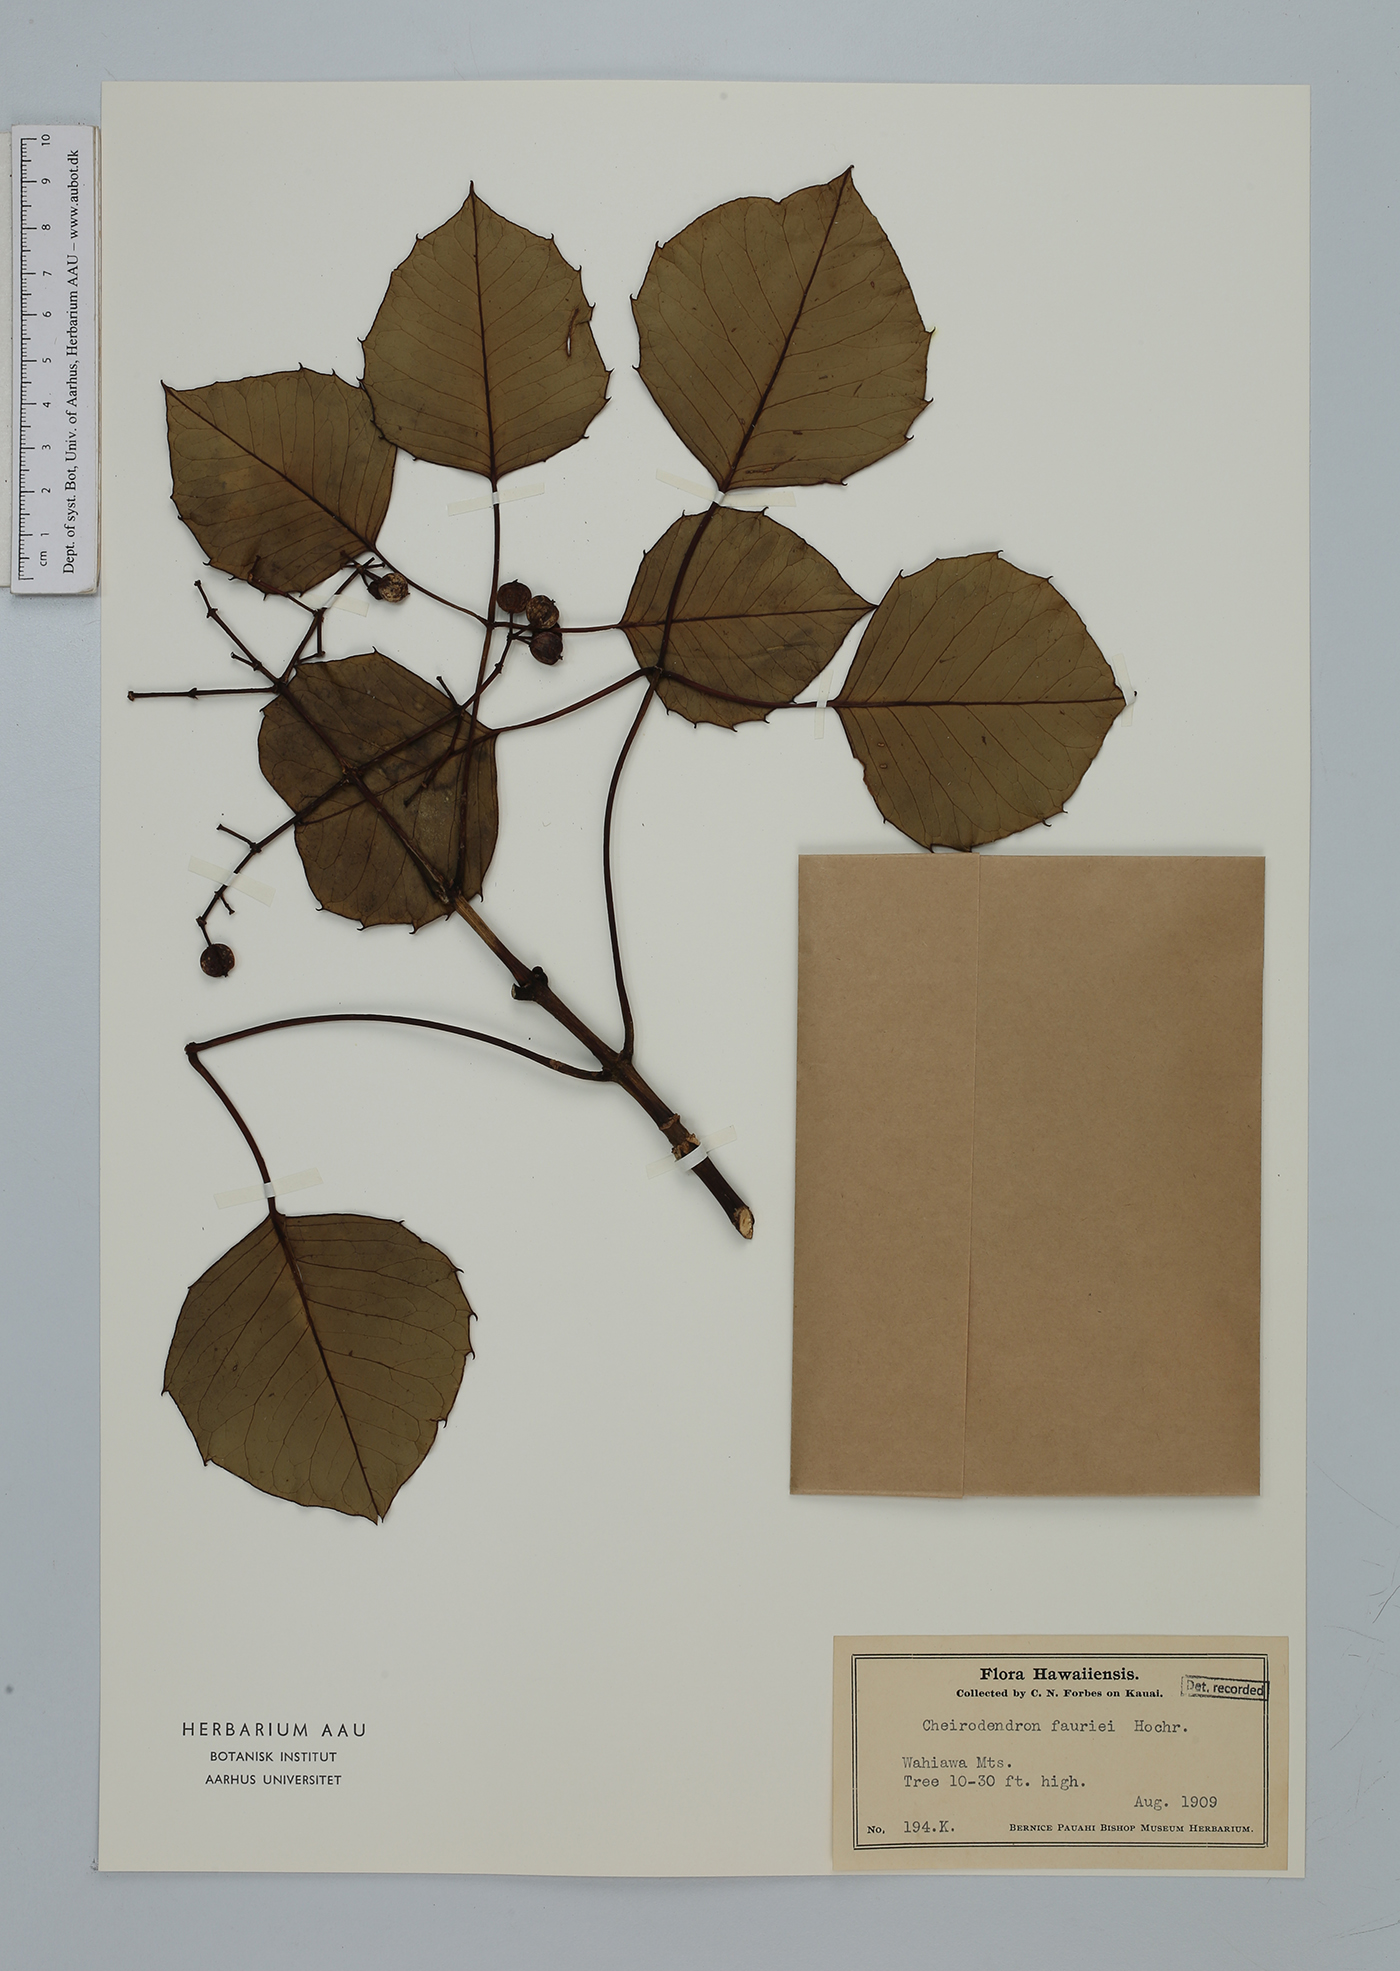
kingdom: Plantae
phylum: Tracheophyta
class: Magnoliopsida
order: Apiales
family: Araliaceae
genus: Cheirodendron
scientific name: Cheirodendron fauriei
